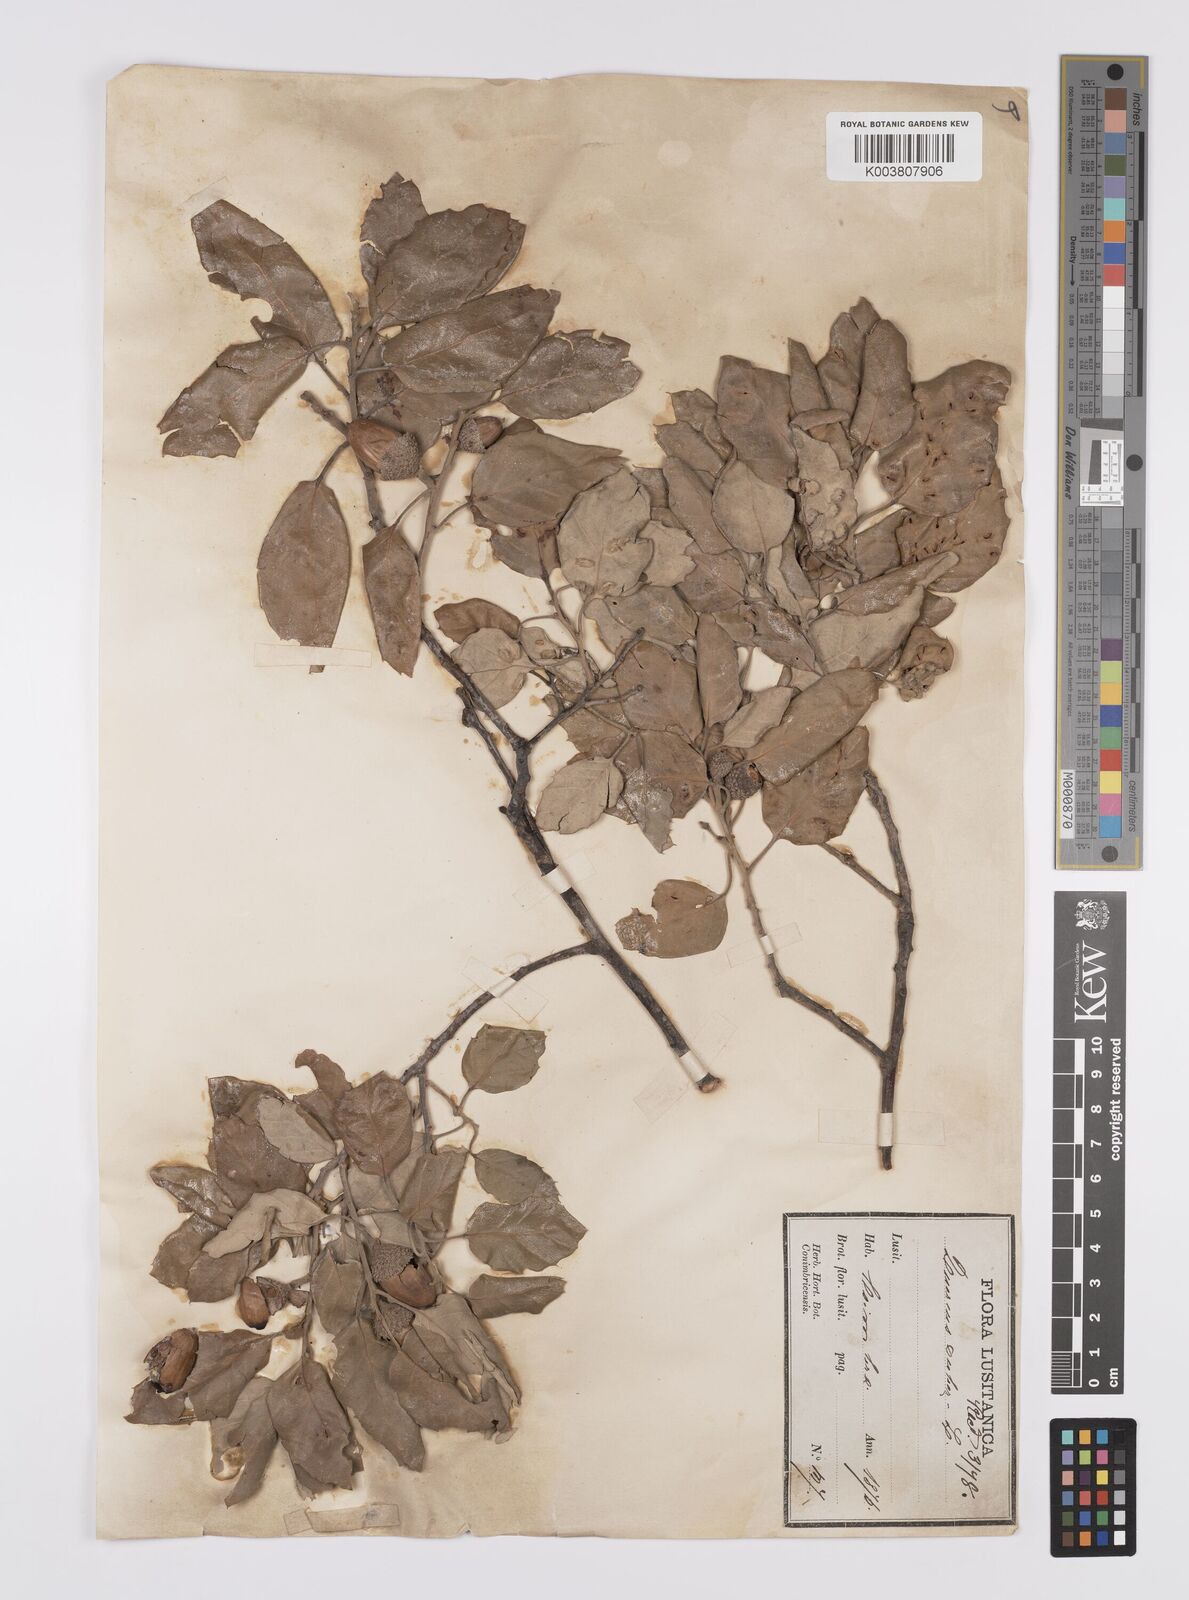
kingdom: Plantae
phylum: Tracheophyta
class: Magnoliopsida
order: Fagales
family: Fagaceae
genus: Quercus
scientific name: Quercus suber
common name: Cork oak
